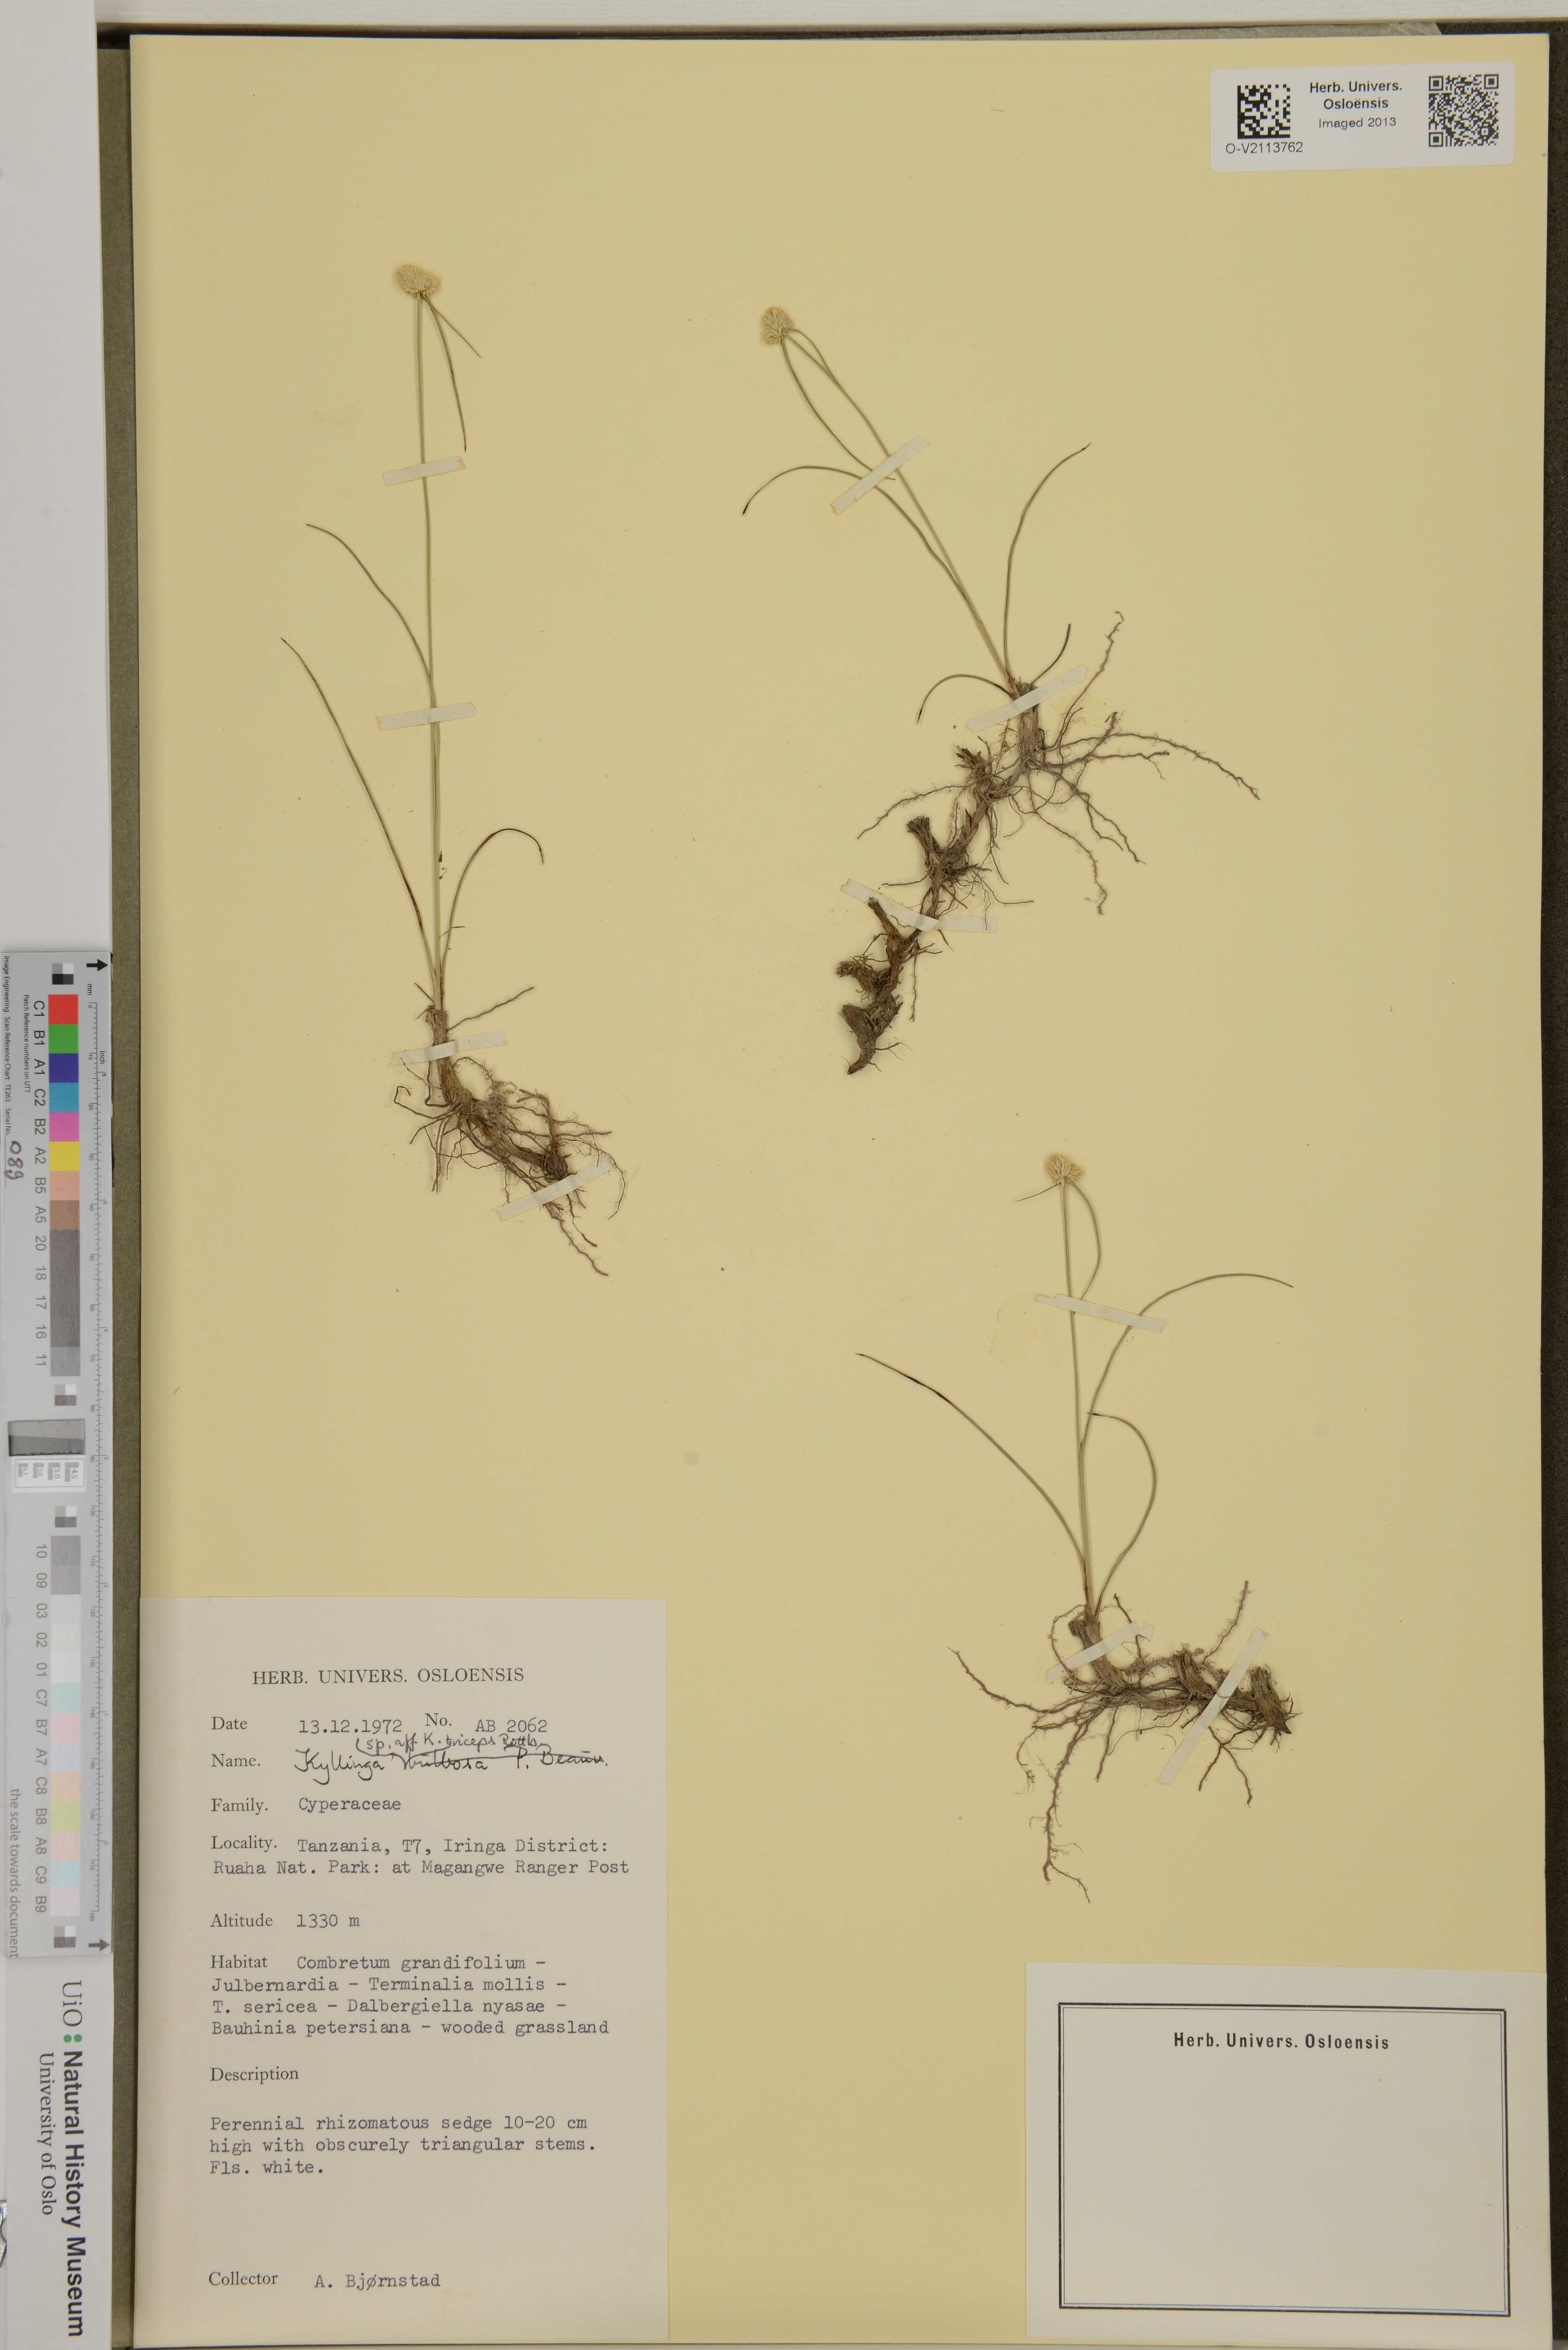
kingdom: Plantae
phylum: Tracheophyta
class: Liliopsida
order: Poales
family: Cyperaceae
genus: Cyperus
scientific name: Cyperus Kyllinga triceps
